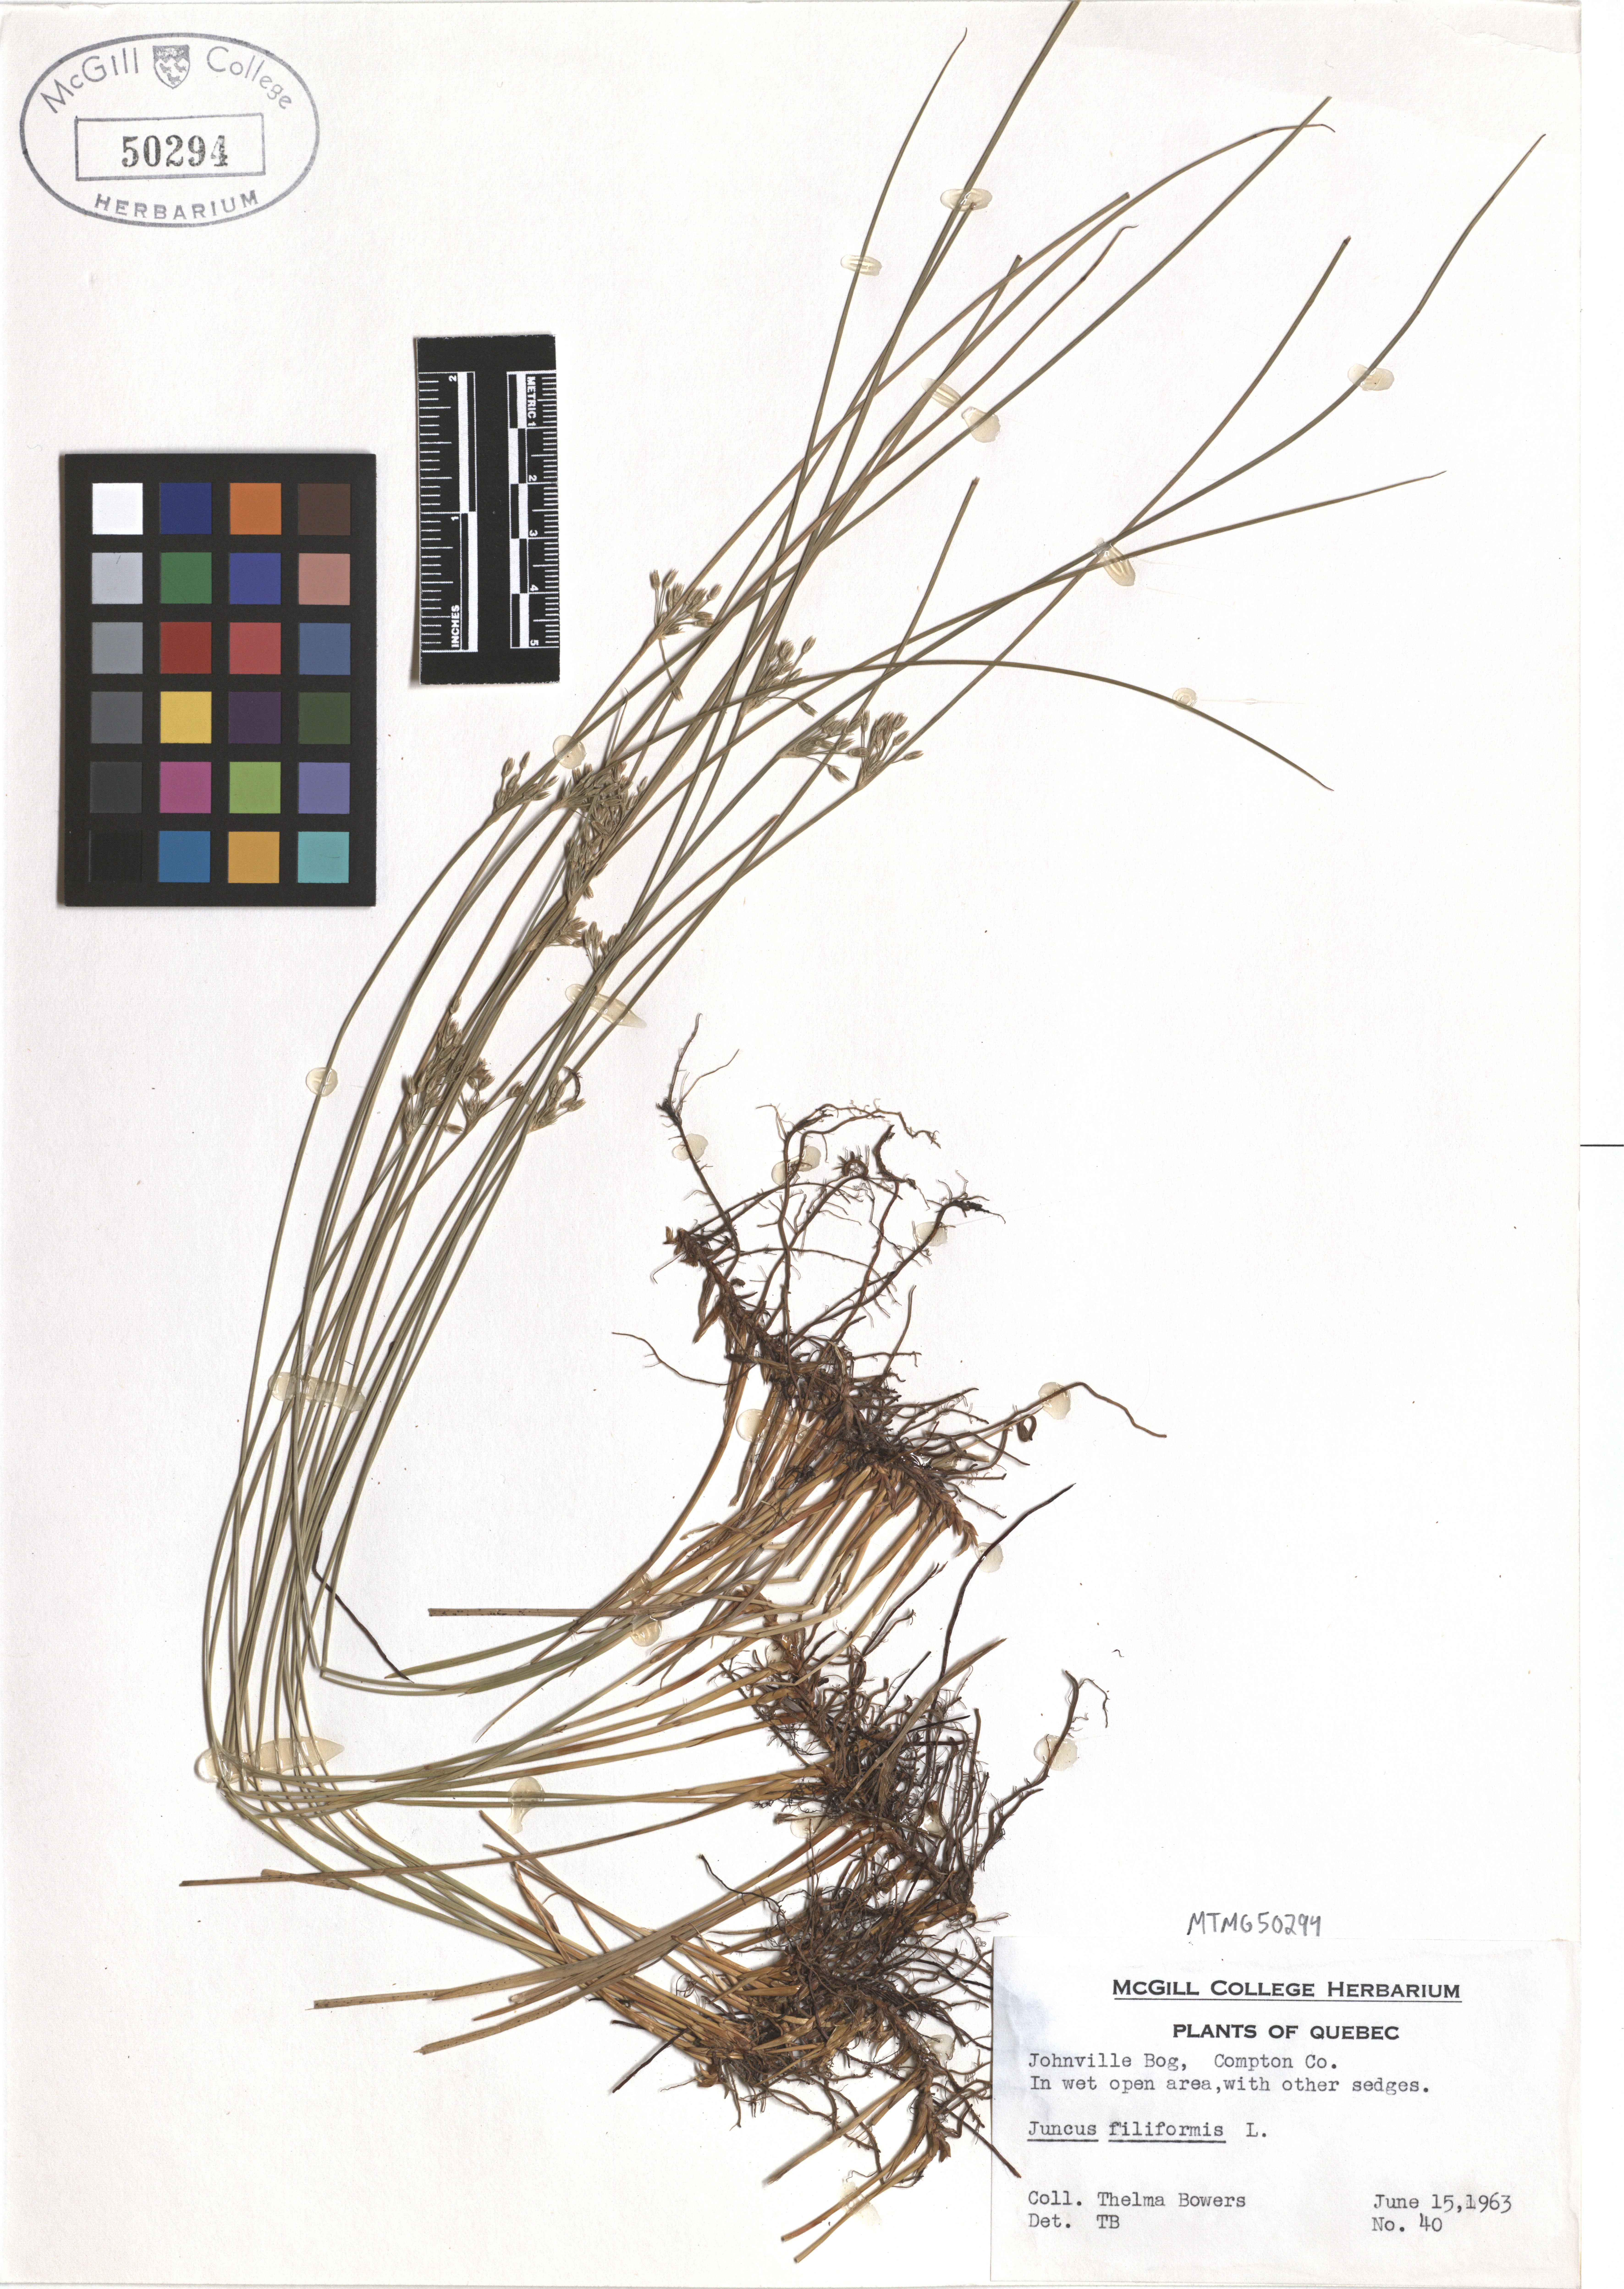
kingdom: Plantae
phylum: Tracheophyta
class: Liliopsida
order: Poales
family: Juncaceae
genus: Juncus
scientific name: Juncus filiformis
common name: Thread rush
